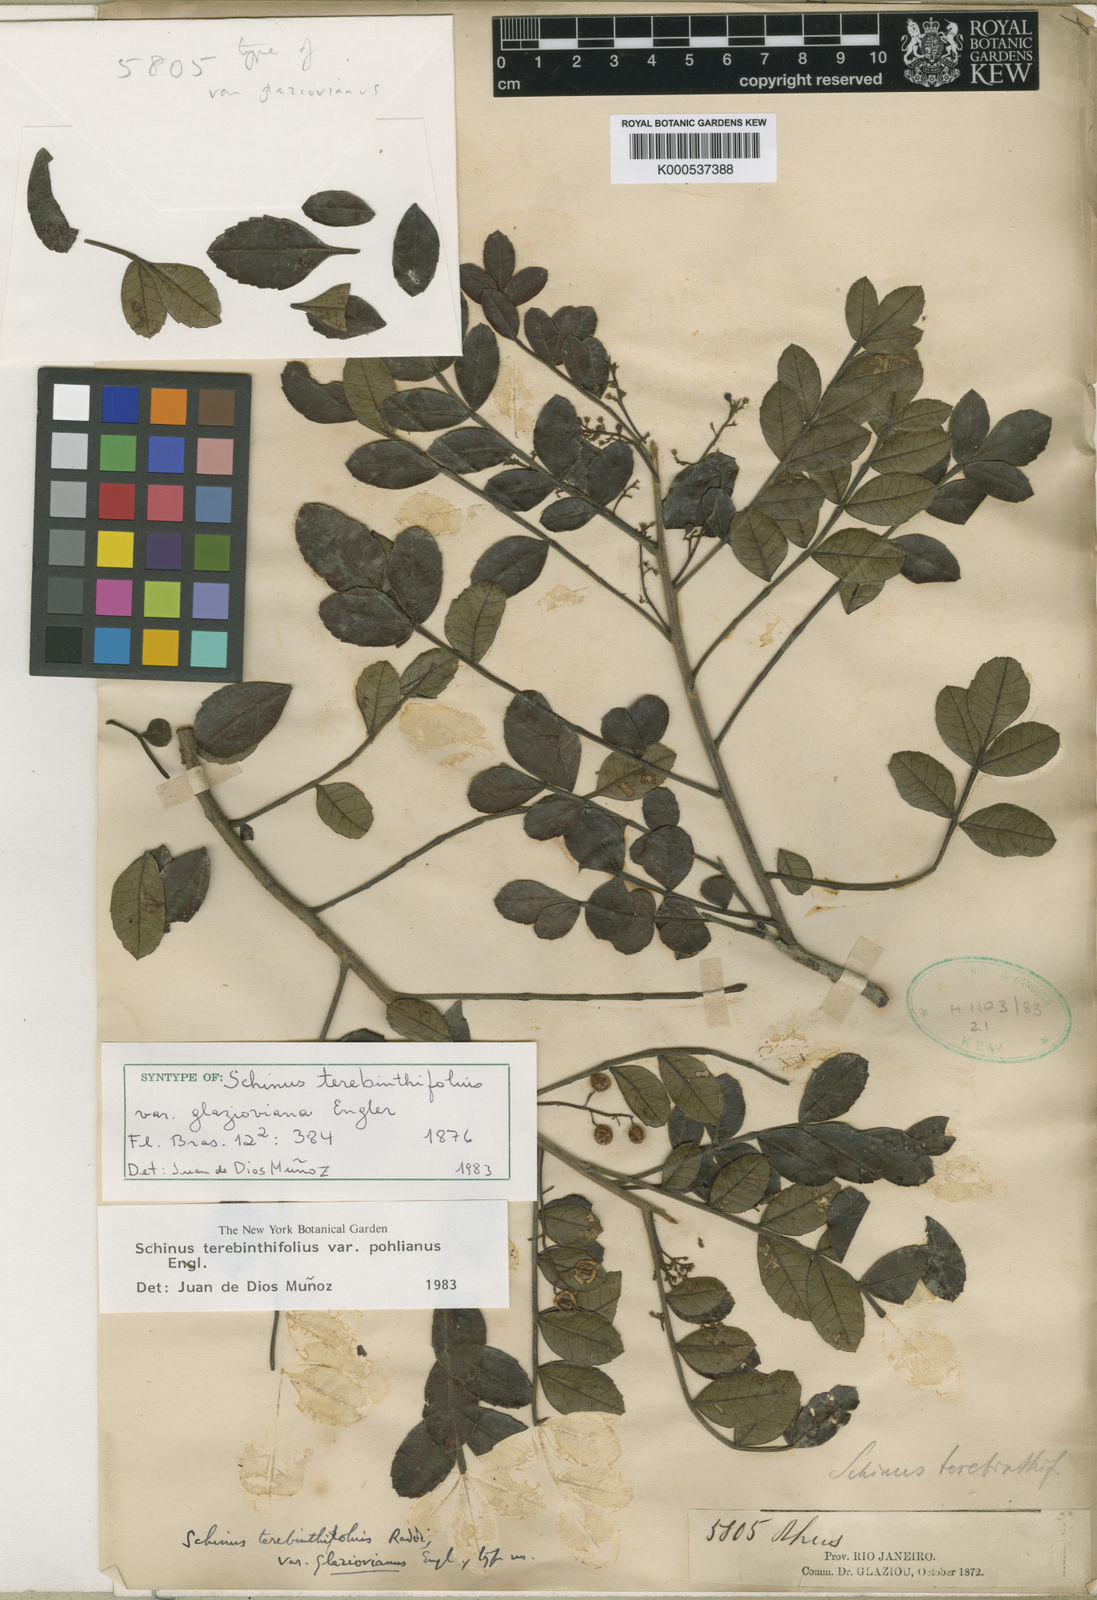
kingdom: Plantae
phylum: Tracheophyta
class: Magnoliopsida
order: Sapindales
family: Anacardiaceae
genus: Schinus
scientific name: Schinus terebinthifolia
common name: Brazilian peppertree
